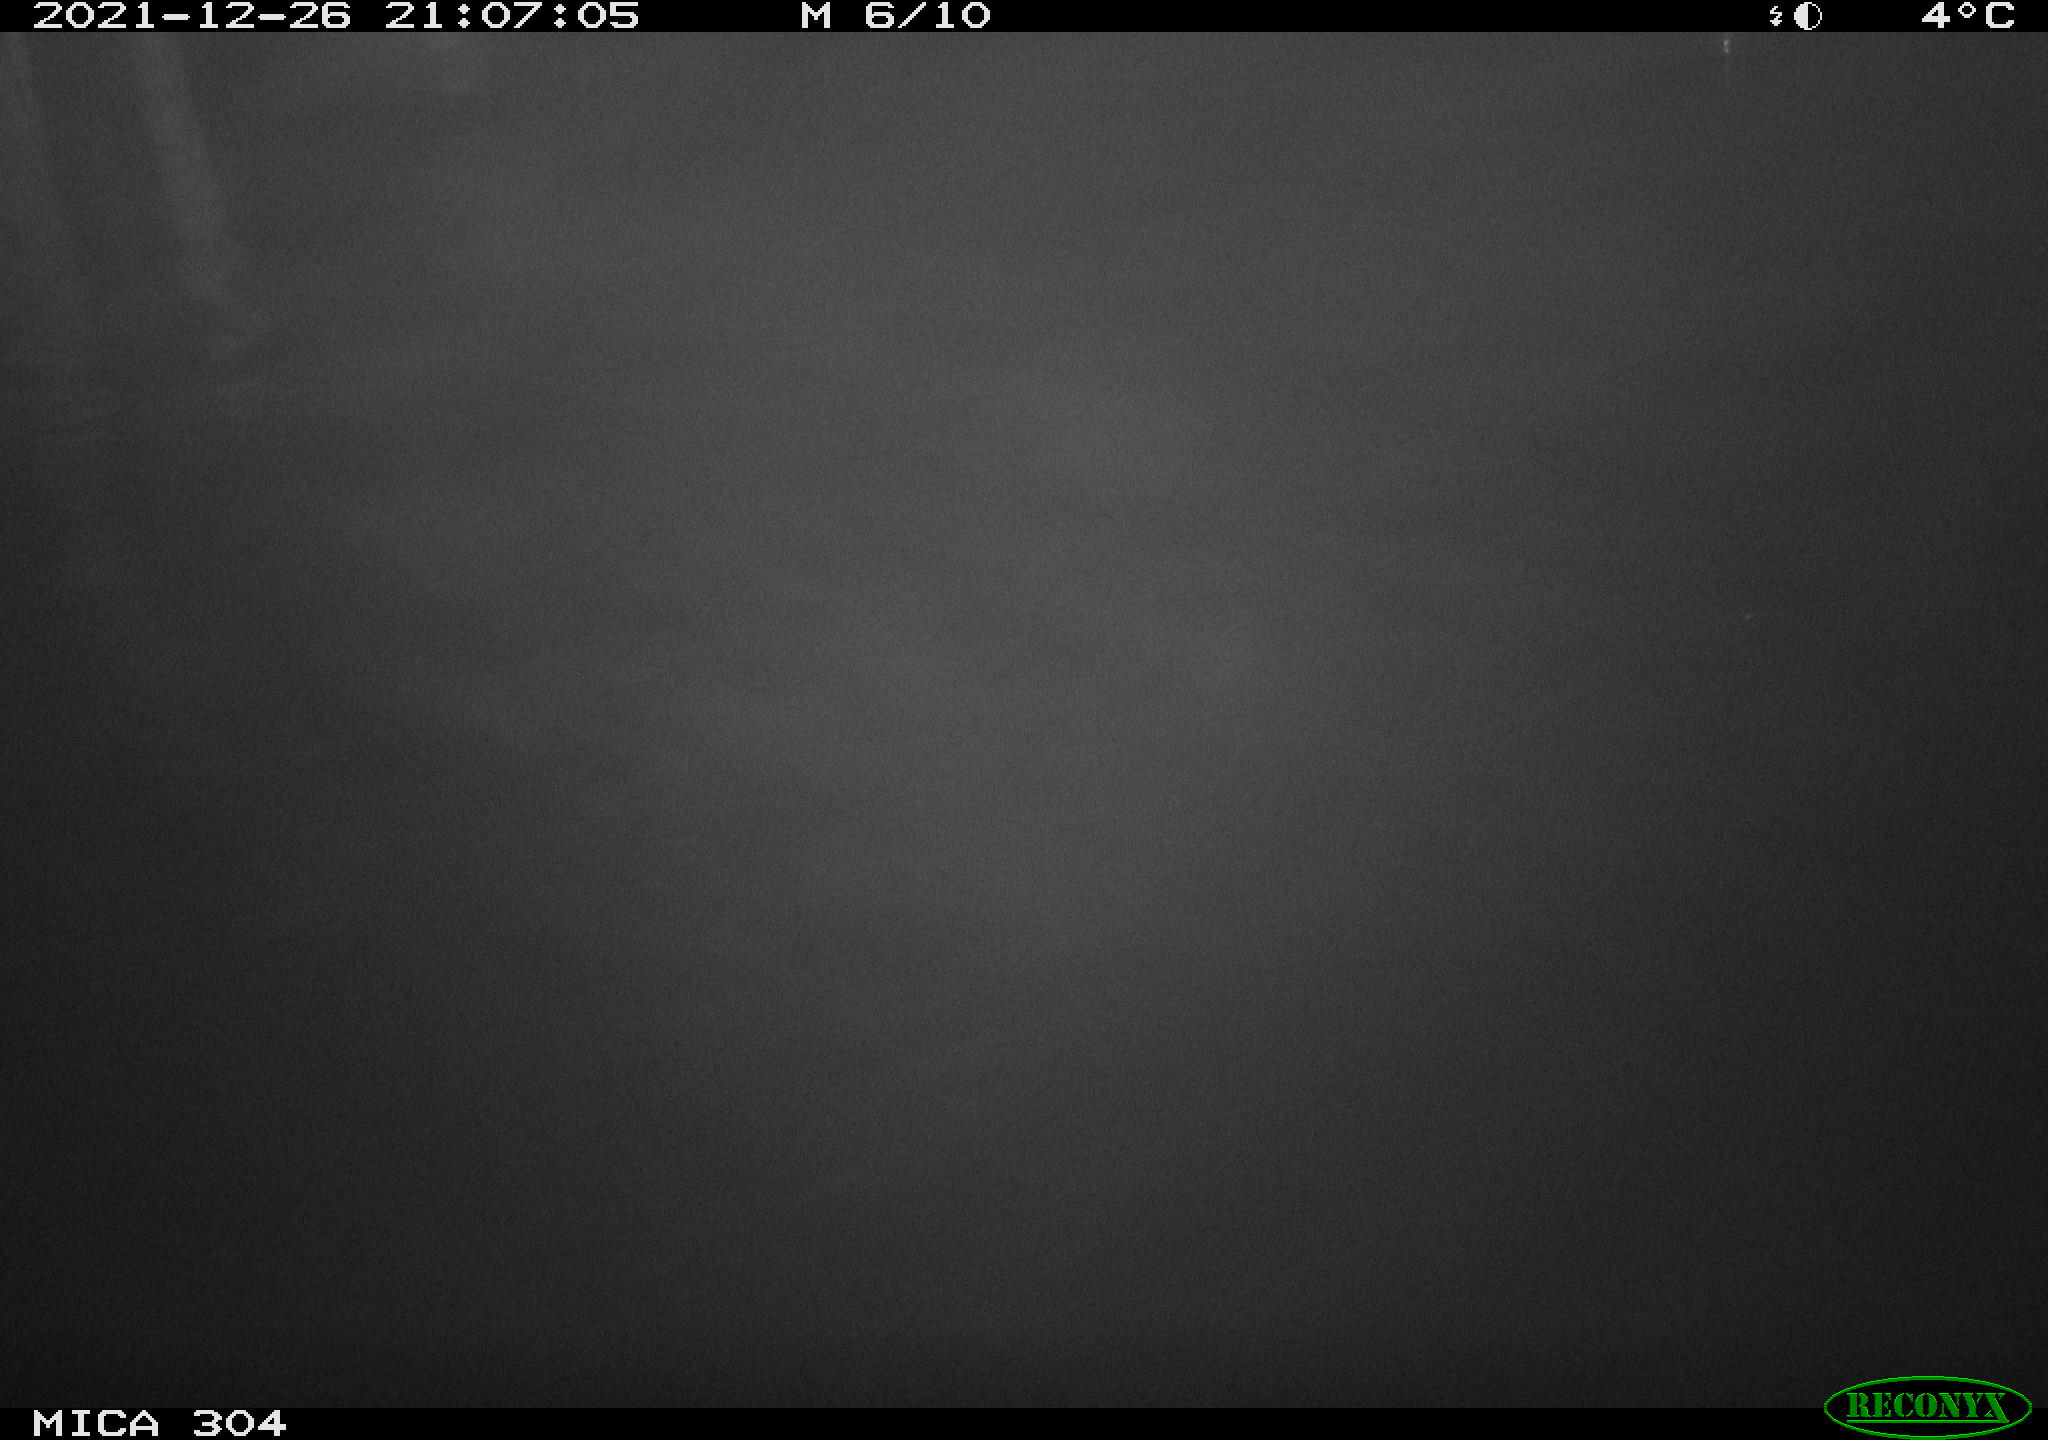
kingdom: Animalia
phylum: Chordata
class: Mammalia
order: Rodentia
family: Muridae
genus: Rattus
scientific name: Rattus norvegicus
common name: Brown rat
